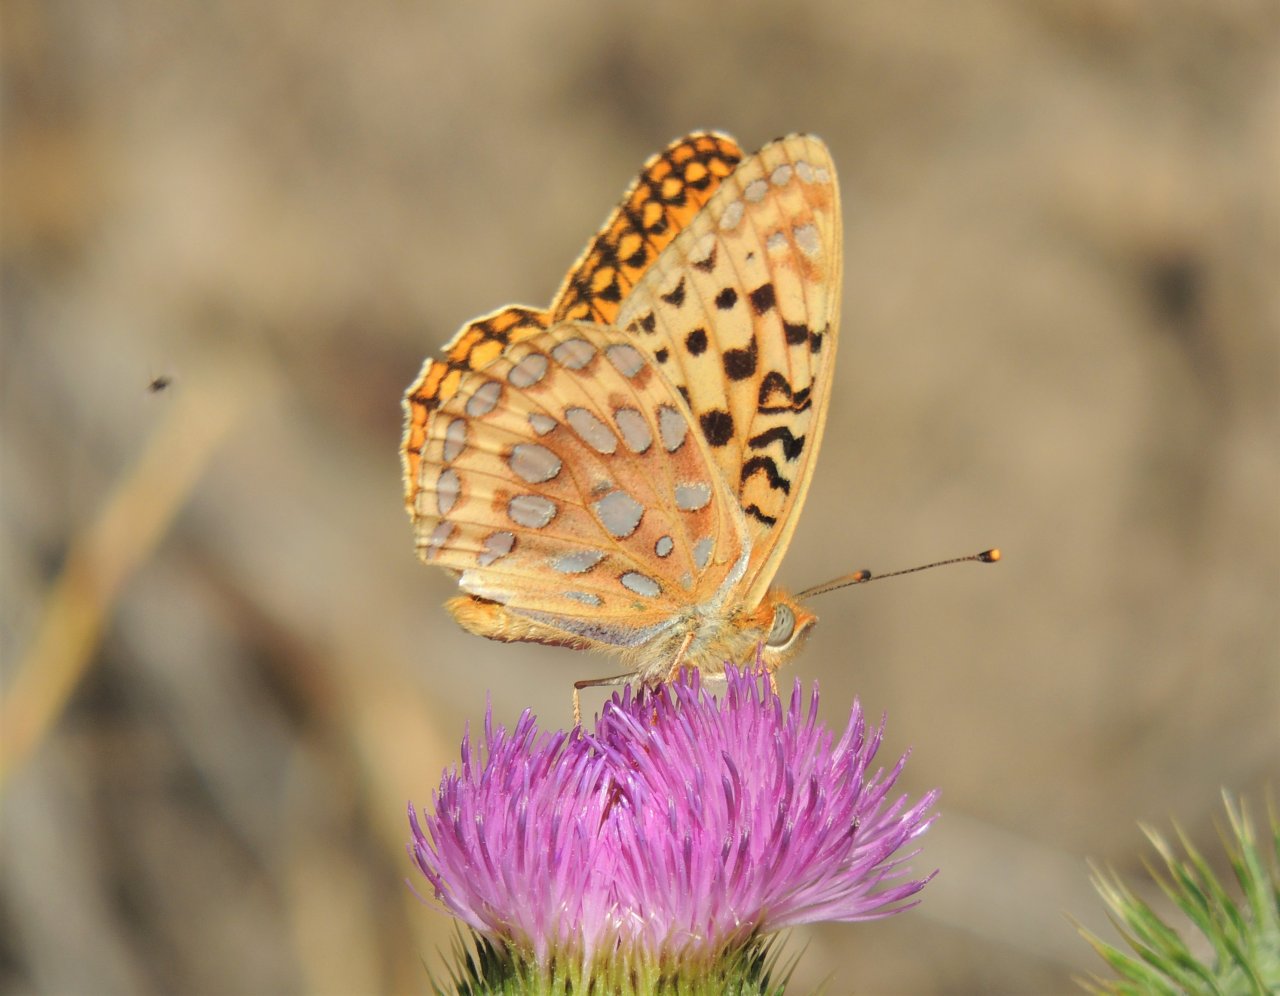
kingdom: Animalia
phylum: Arthropoda
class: Insecta
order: Lepidoptera
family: Nymphalidae
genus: Speyeria
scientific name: Speyeria zerene
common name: Zerene Fritillary
